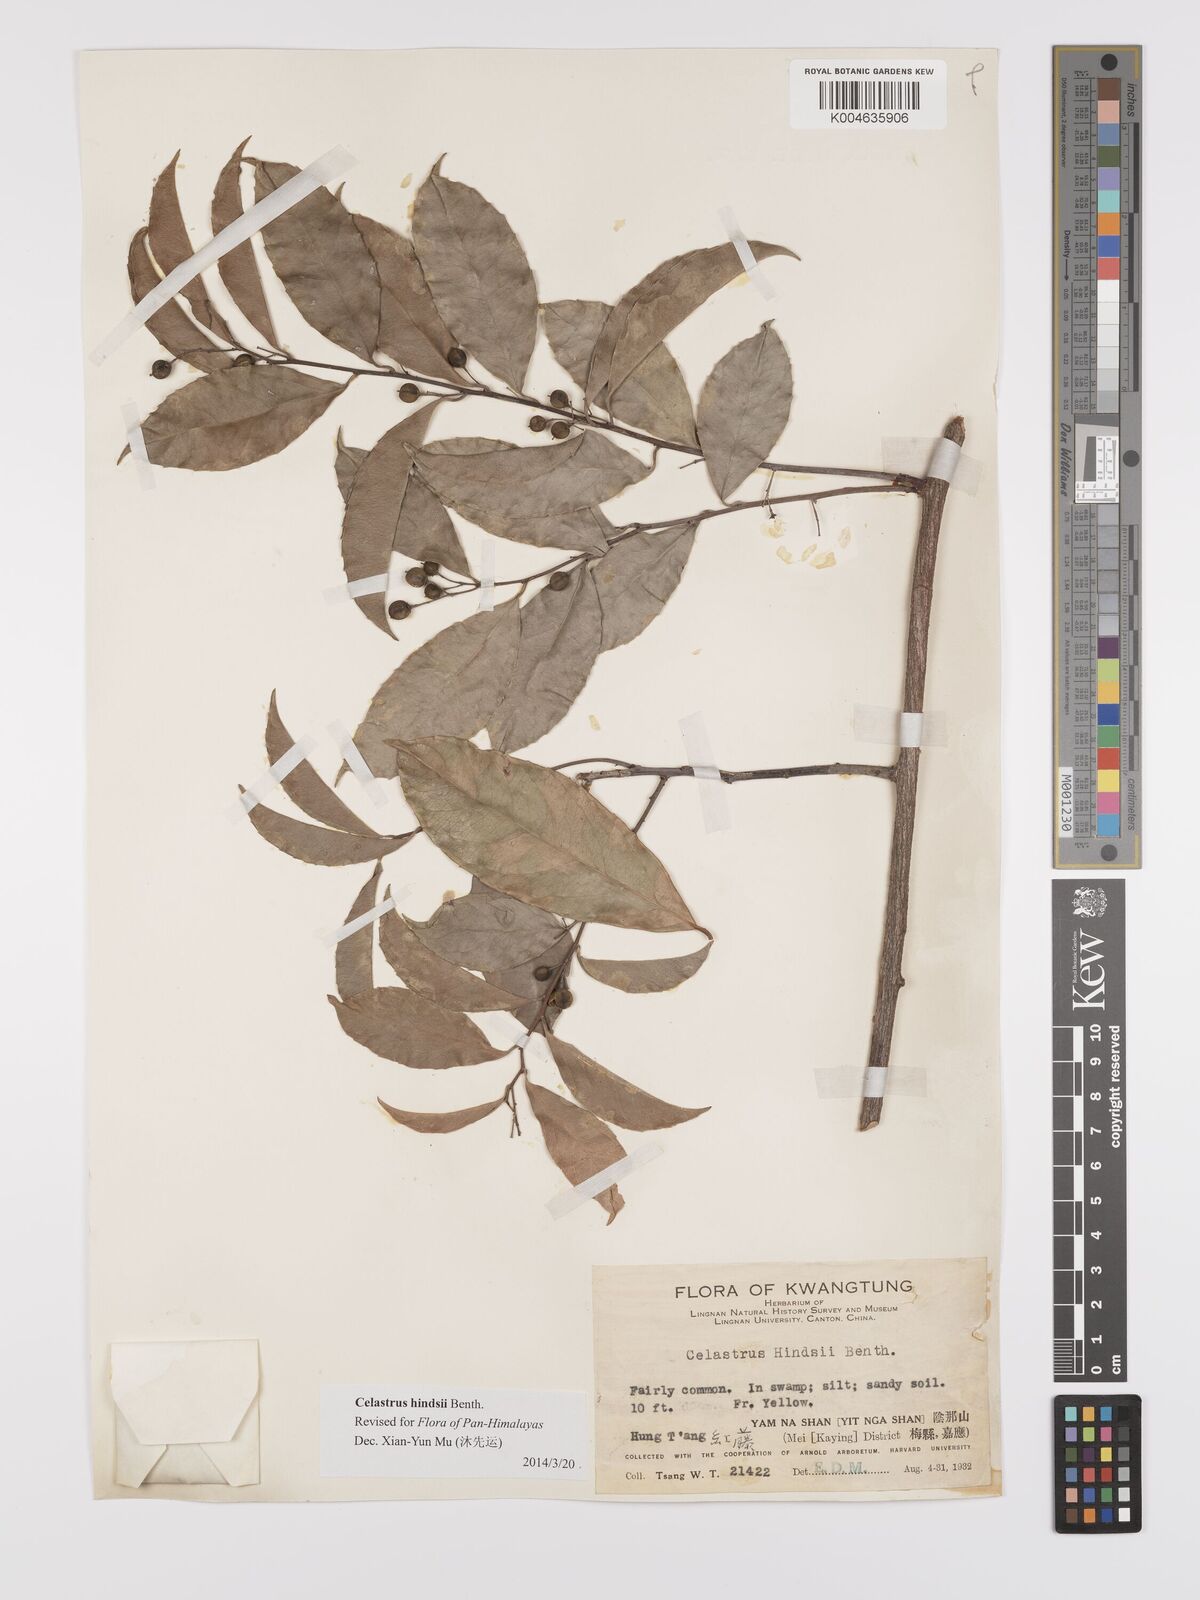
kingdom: Plantae
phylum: Tracheophyta
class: Magnoliopsida
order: Celastrales
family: Celastraceae
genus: Celastrus
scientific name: Celastrus hindsii
